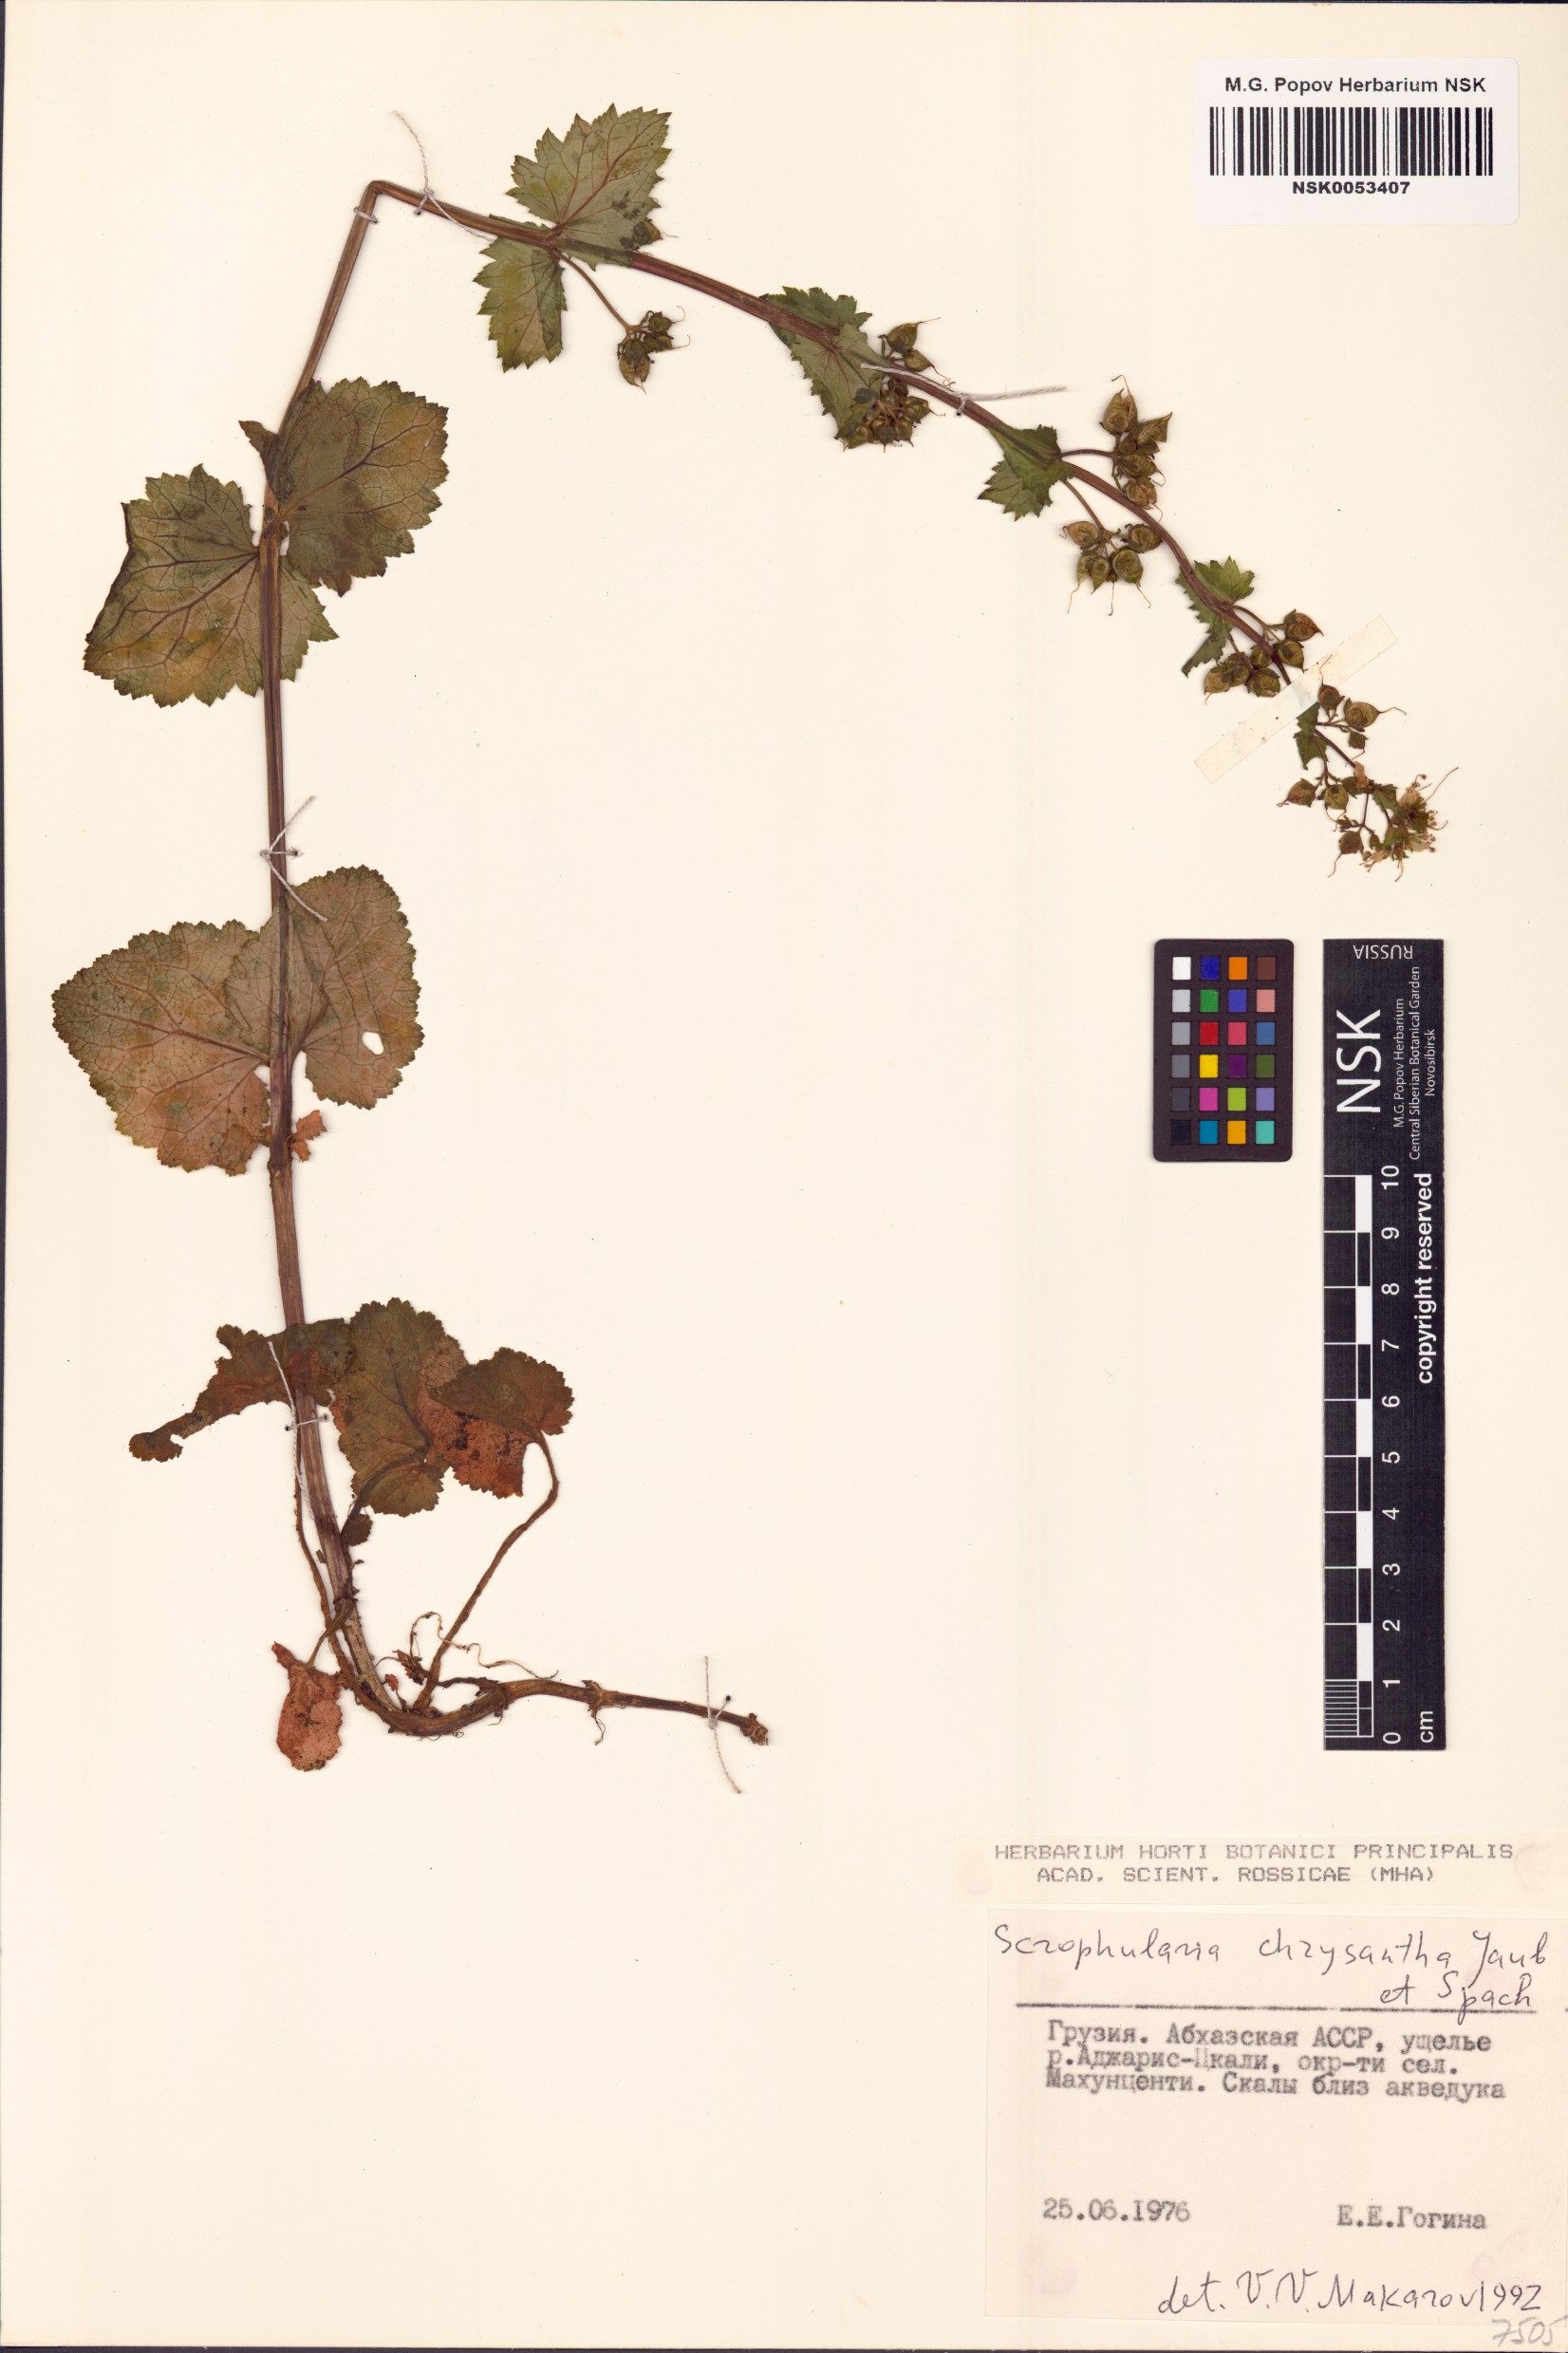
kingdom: Plantae
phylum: Tracheophyta
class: Magnoliopsida
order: Lamiales
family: Scrophulariaceae
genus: Scrophularia
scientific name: Scrophularia chrysantha
